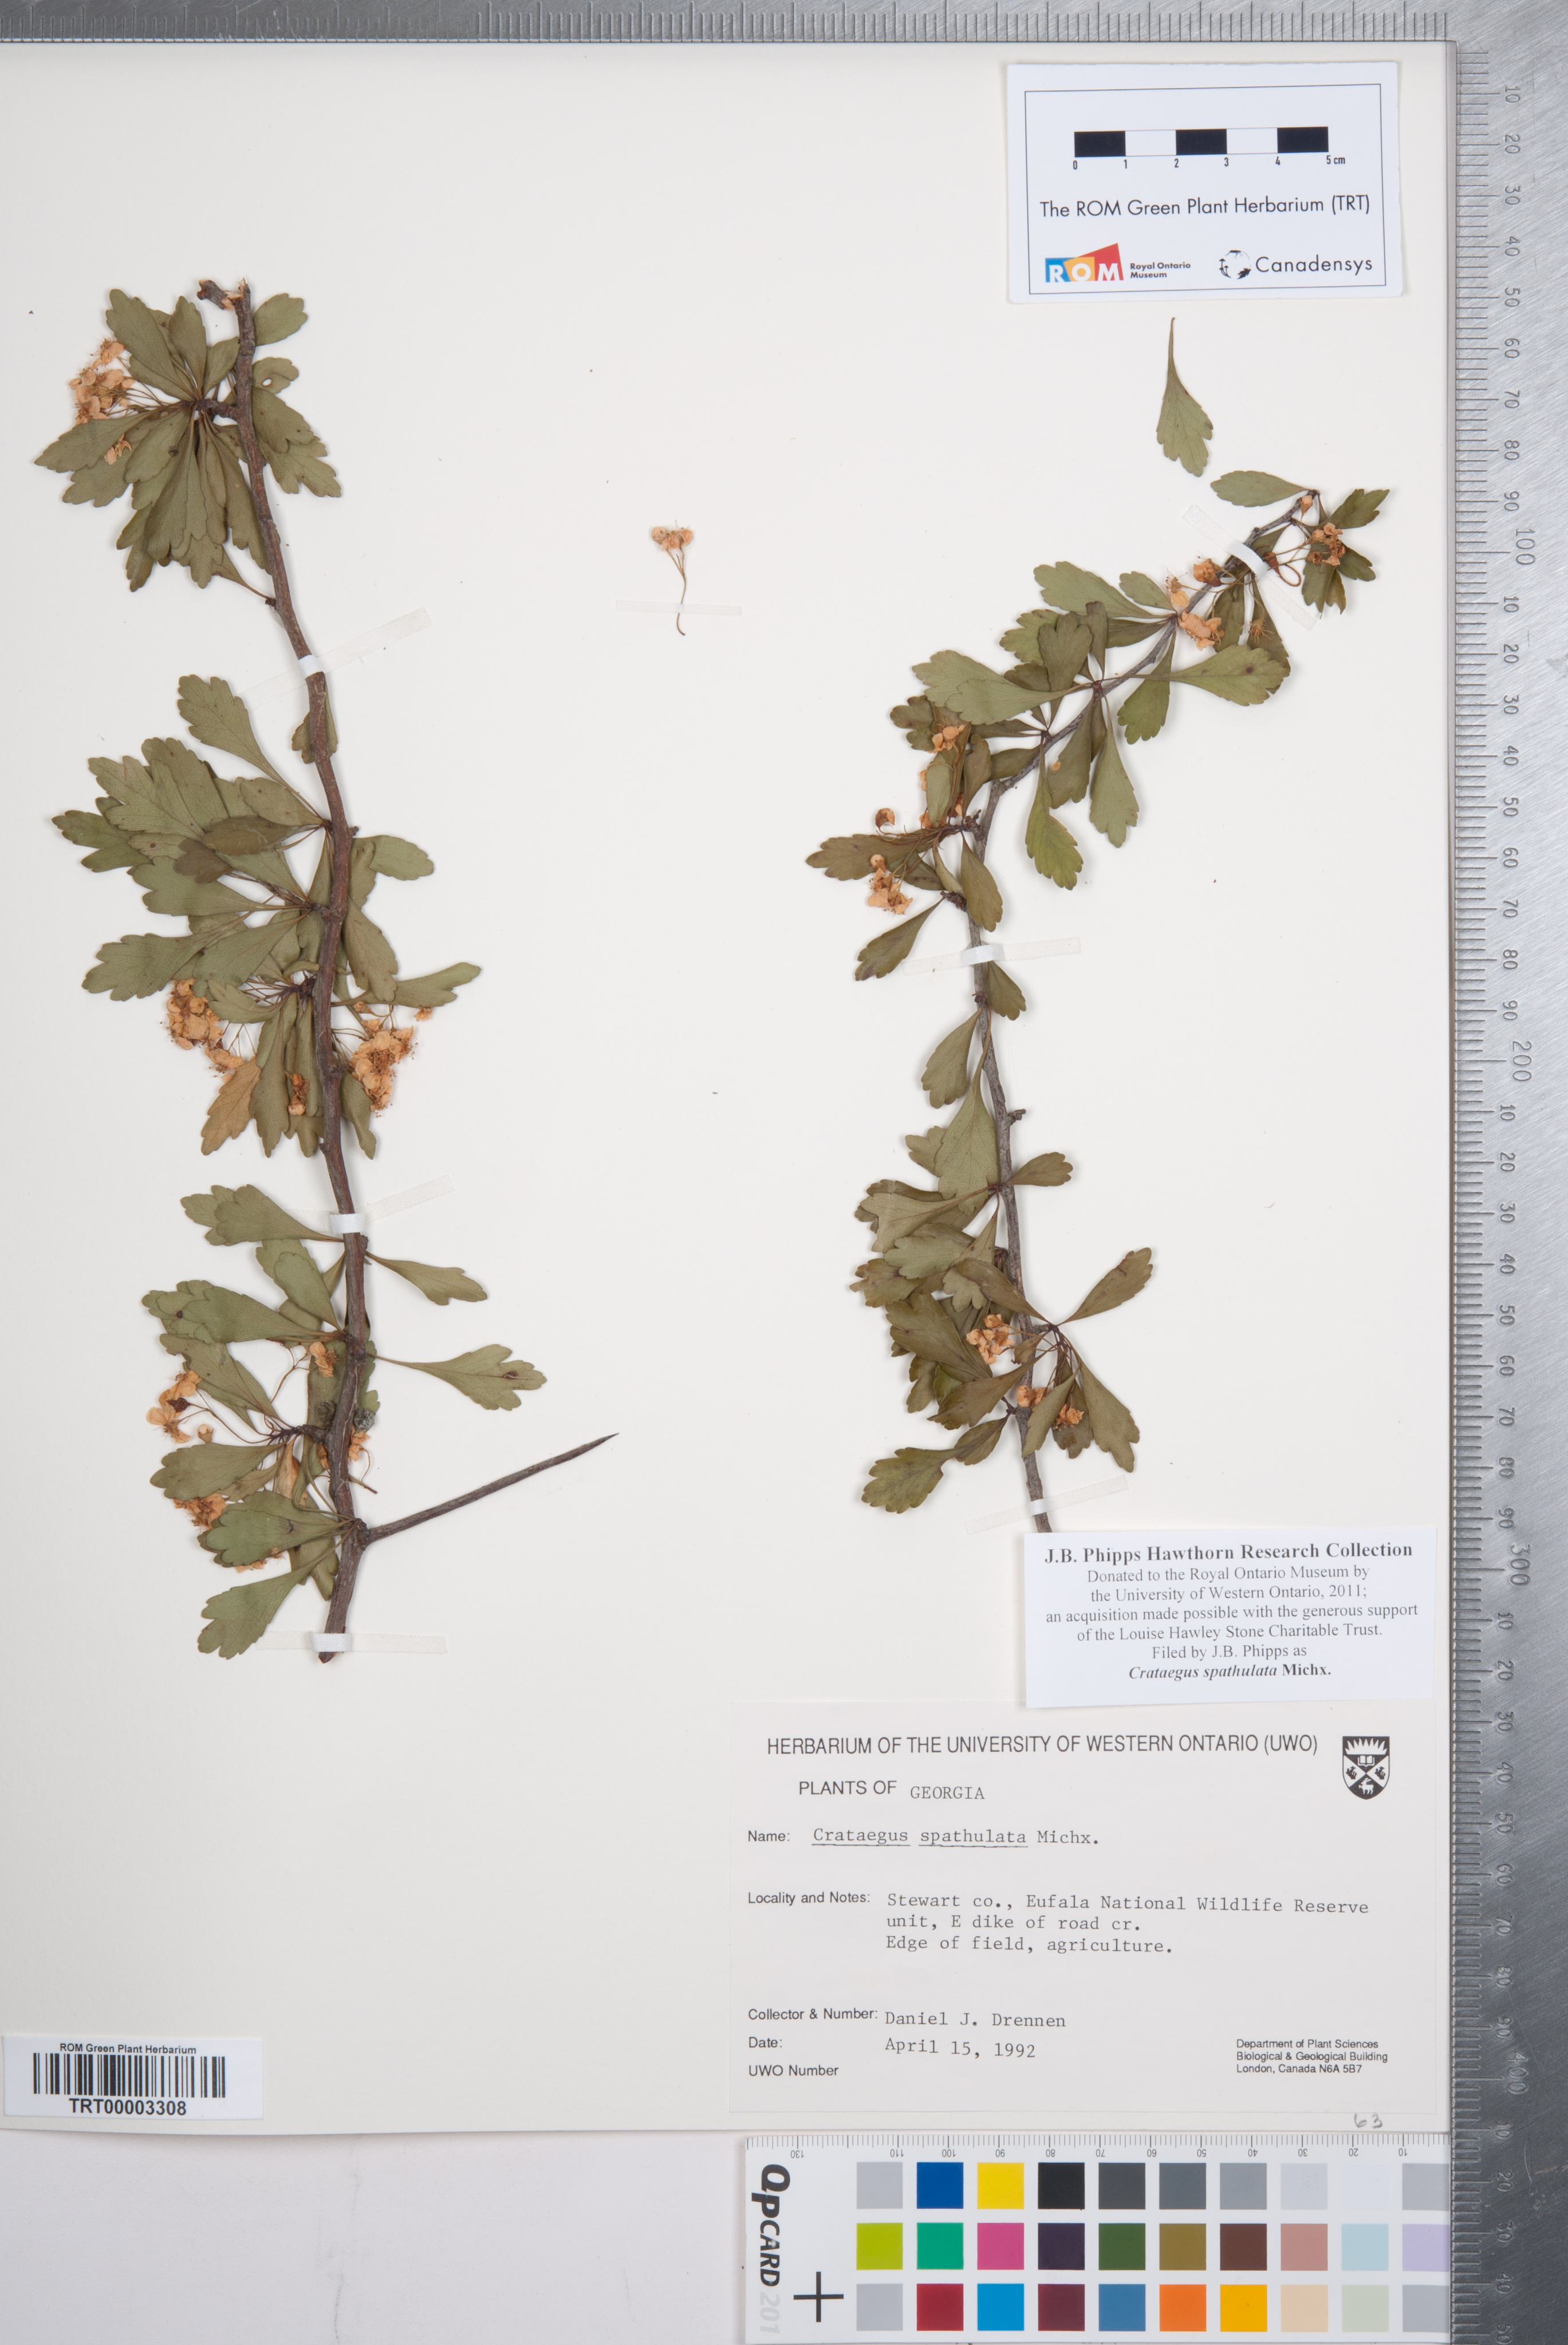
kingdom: Plantae
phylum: Tracheophyta
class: Magnoliopsida
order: Rosales
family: Rosaceae
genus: Crataegus
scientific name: Crataegus spathulata
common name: Littlehip hawthorn
